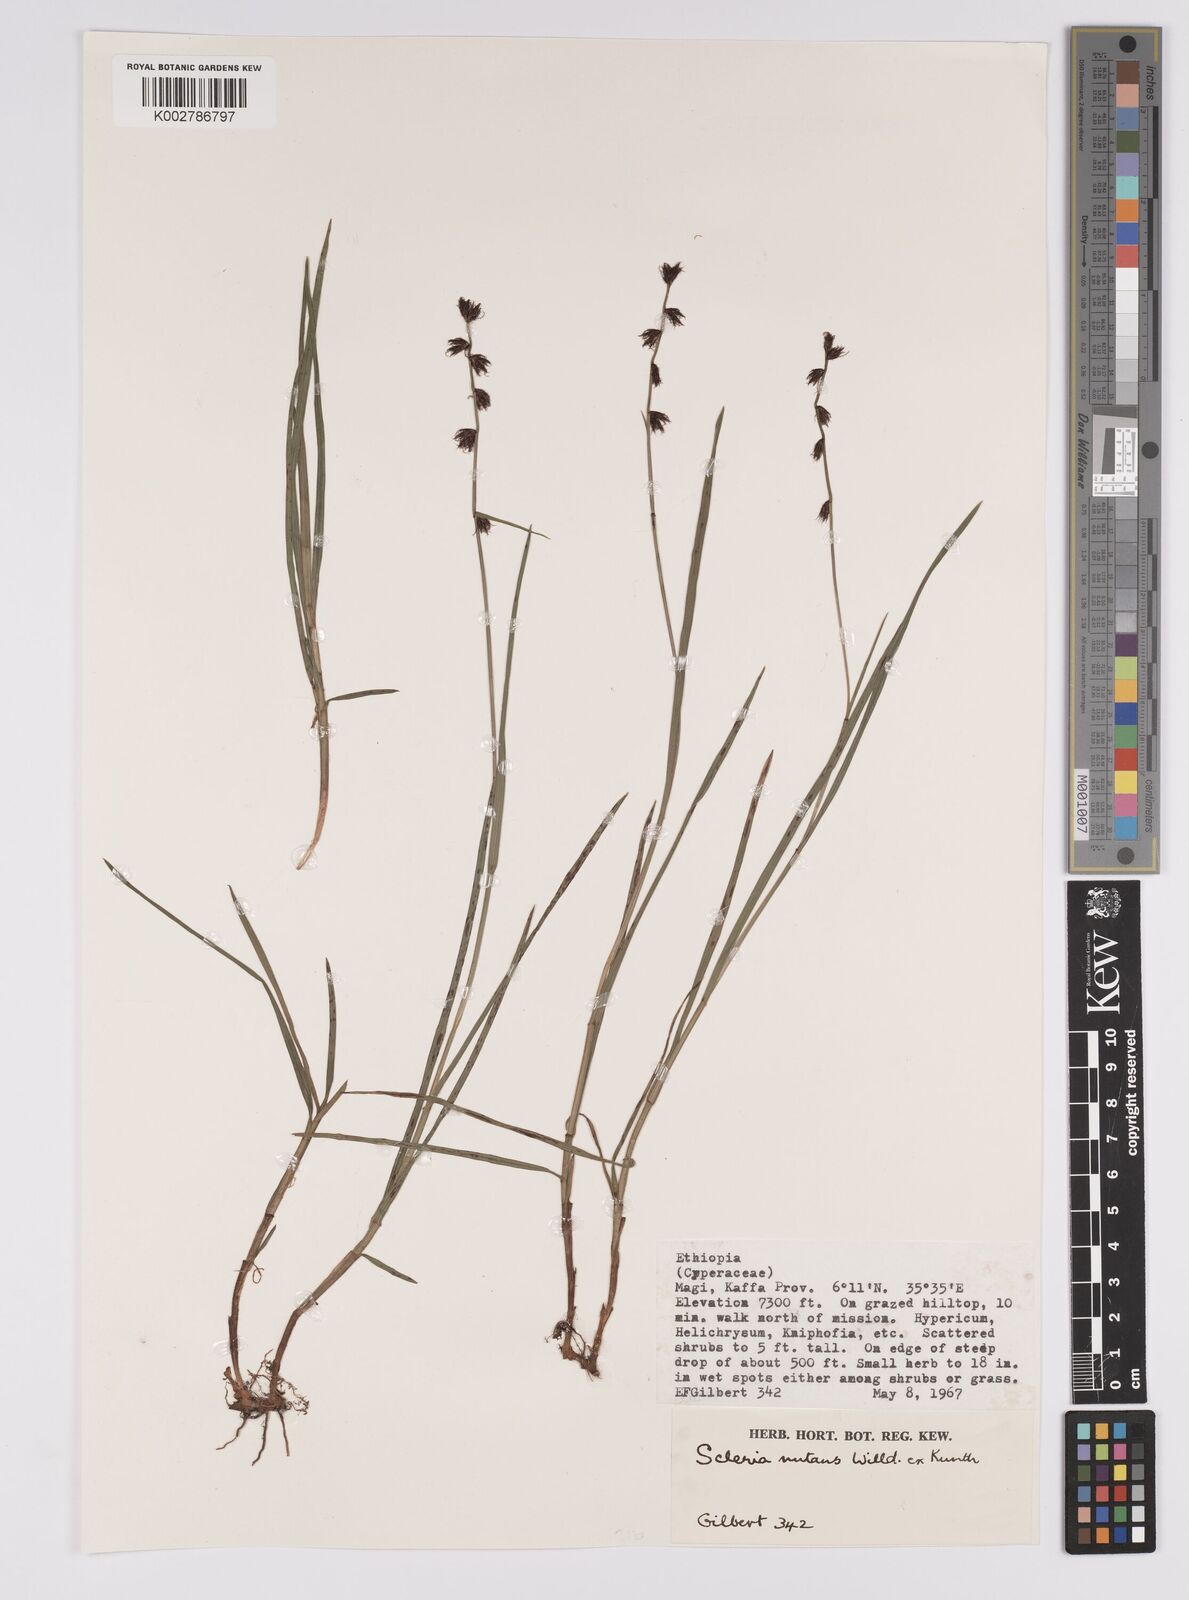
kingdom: Plantae
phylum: Tracheophyta
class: Liliopsida
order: Poales
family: Cyperaceae
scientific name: Cyperaceae
